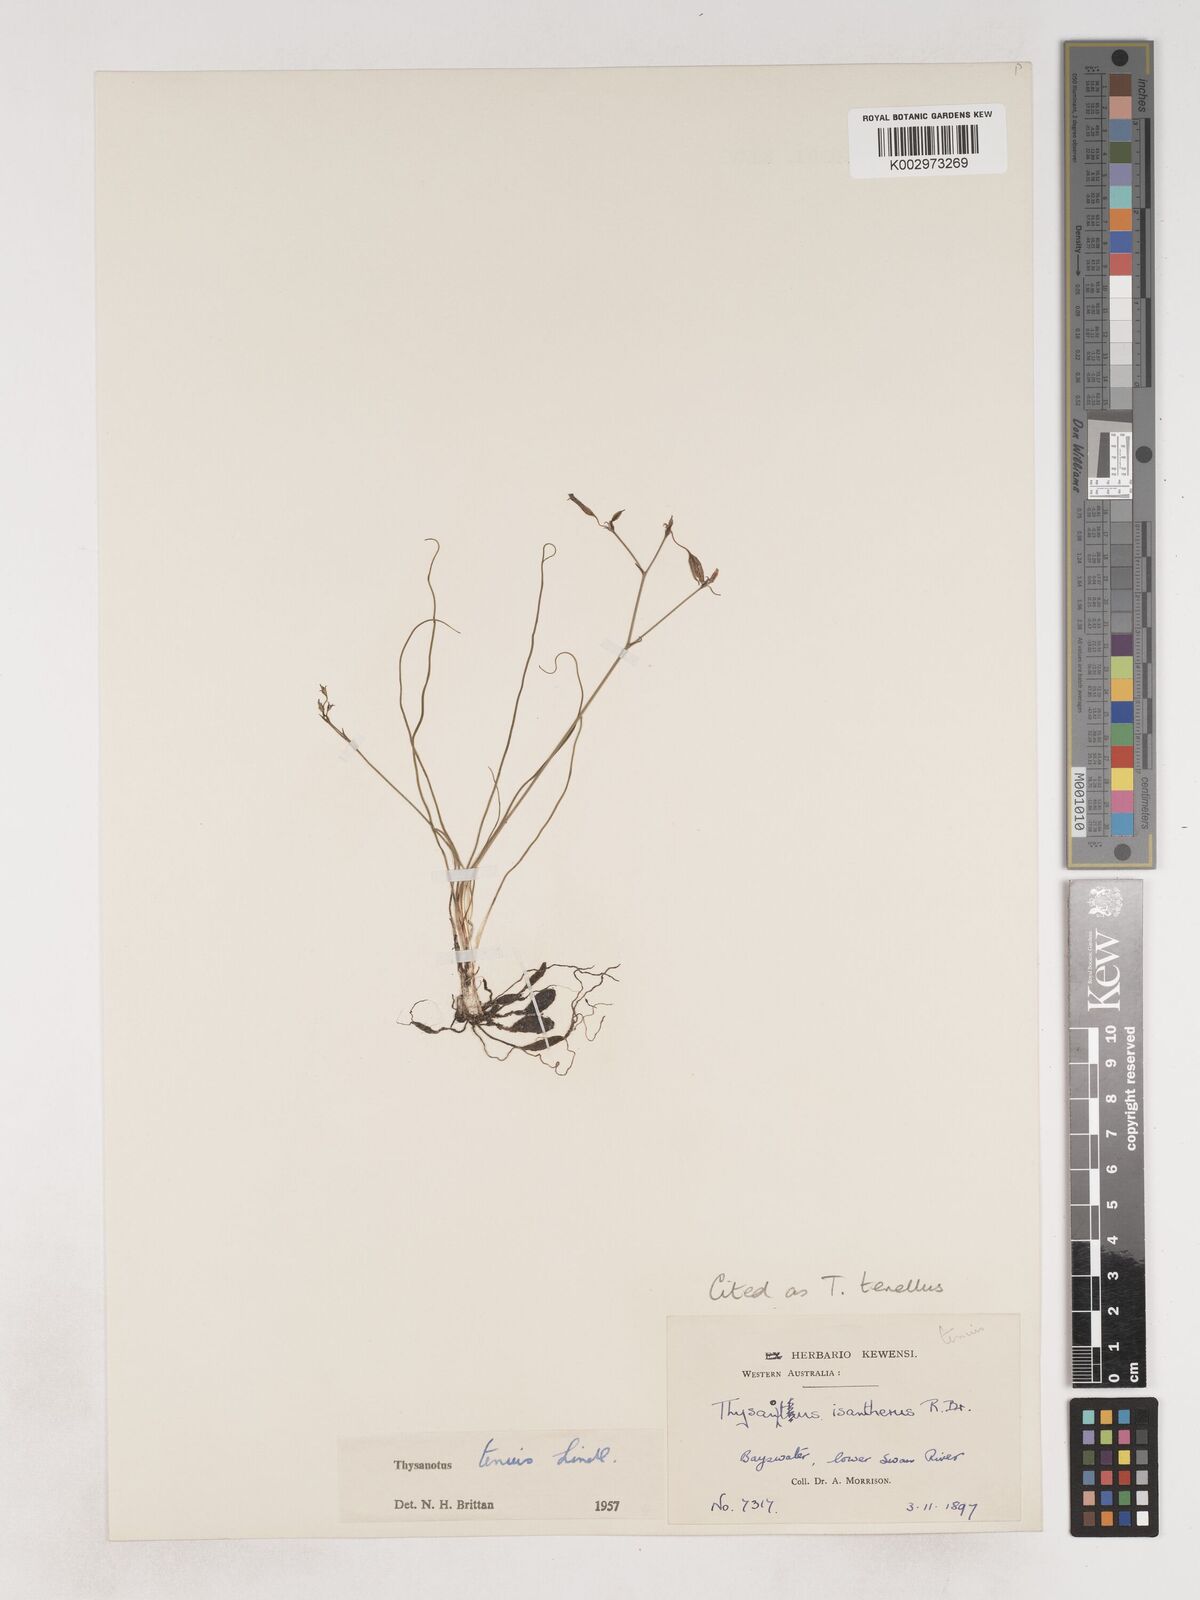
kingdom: Plantae
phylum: Tracheophyta
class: Liliopsida
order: Asparagales
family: Asparagaceae
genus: Thysanotus
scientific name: Thysanotus tenellus
